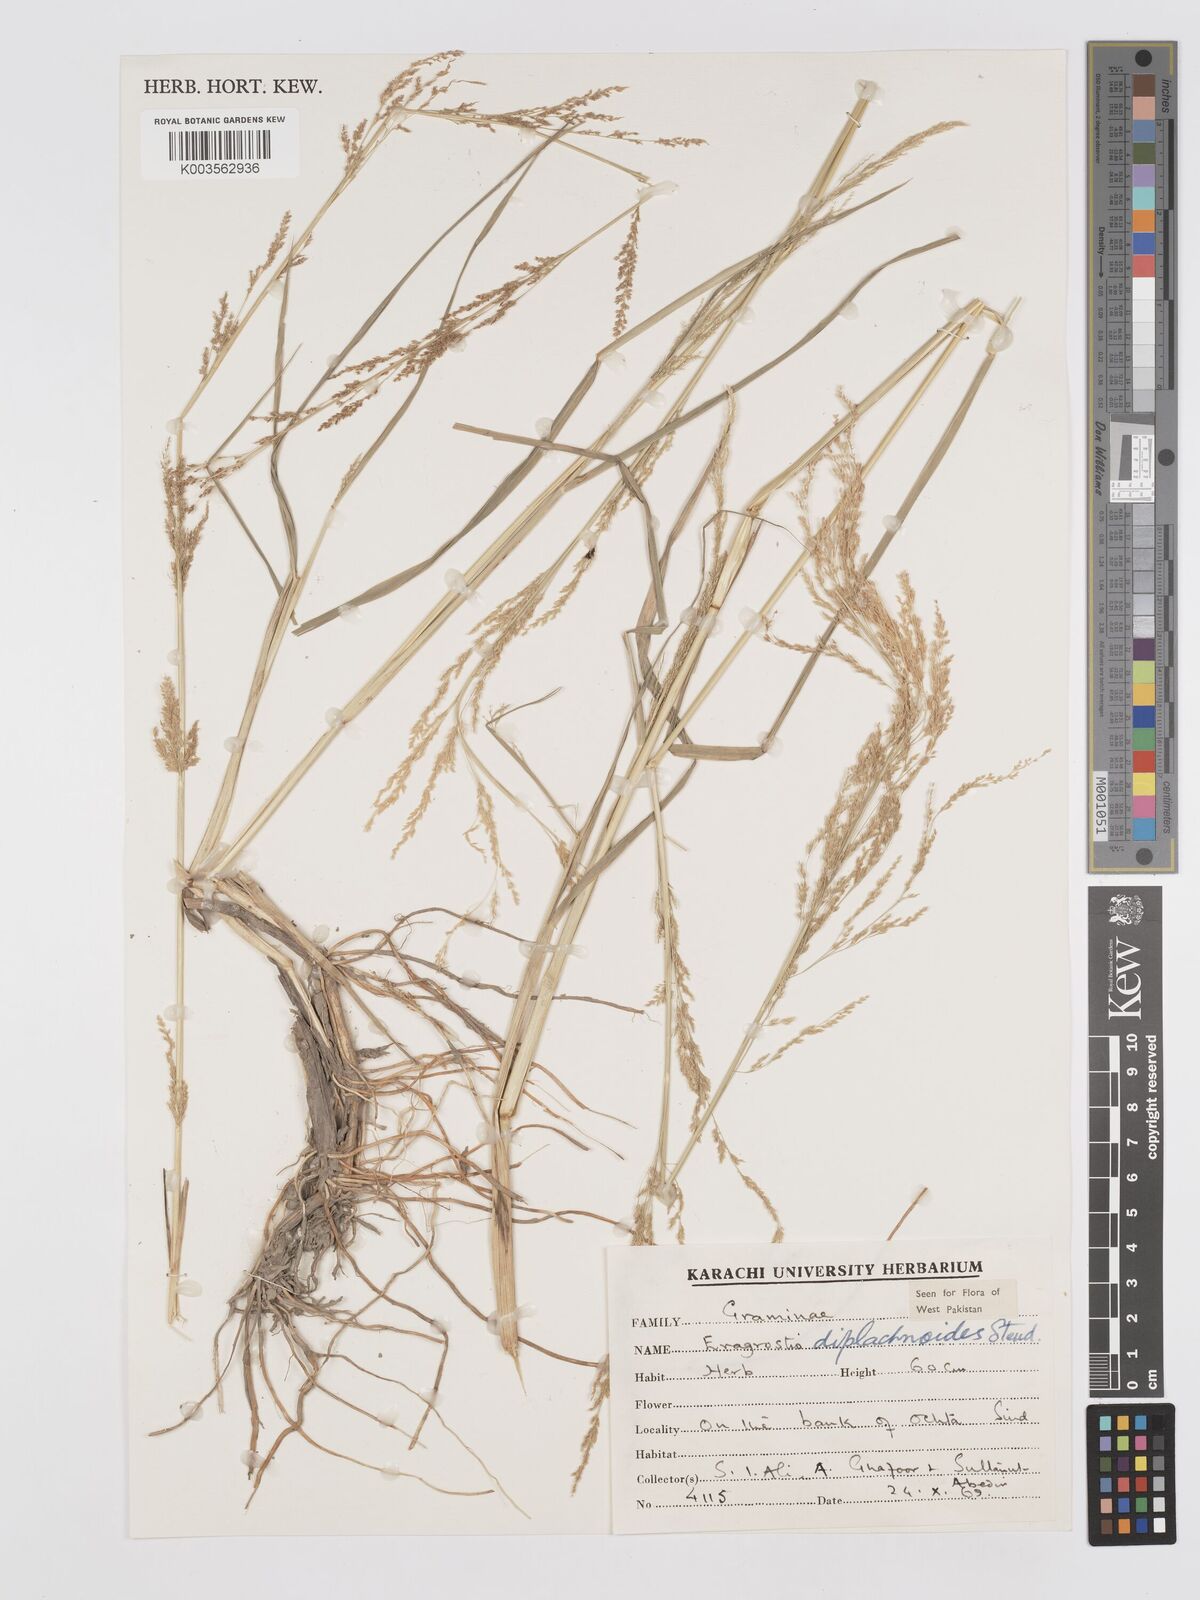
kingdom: Plantae
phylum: Tracheophyta
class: Liliopsida
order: Poales
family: Poaceae
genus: Eragrostis
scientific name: Eragrostis japonica
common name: Pond lovegrass
